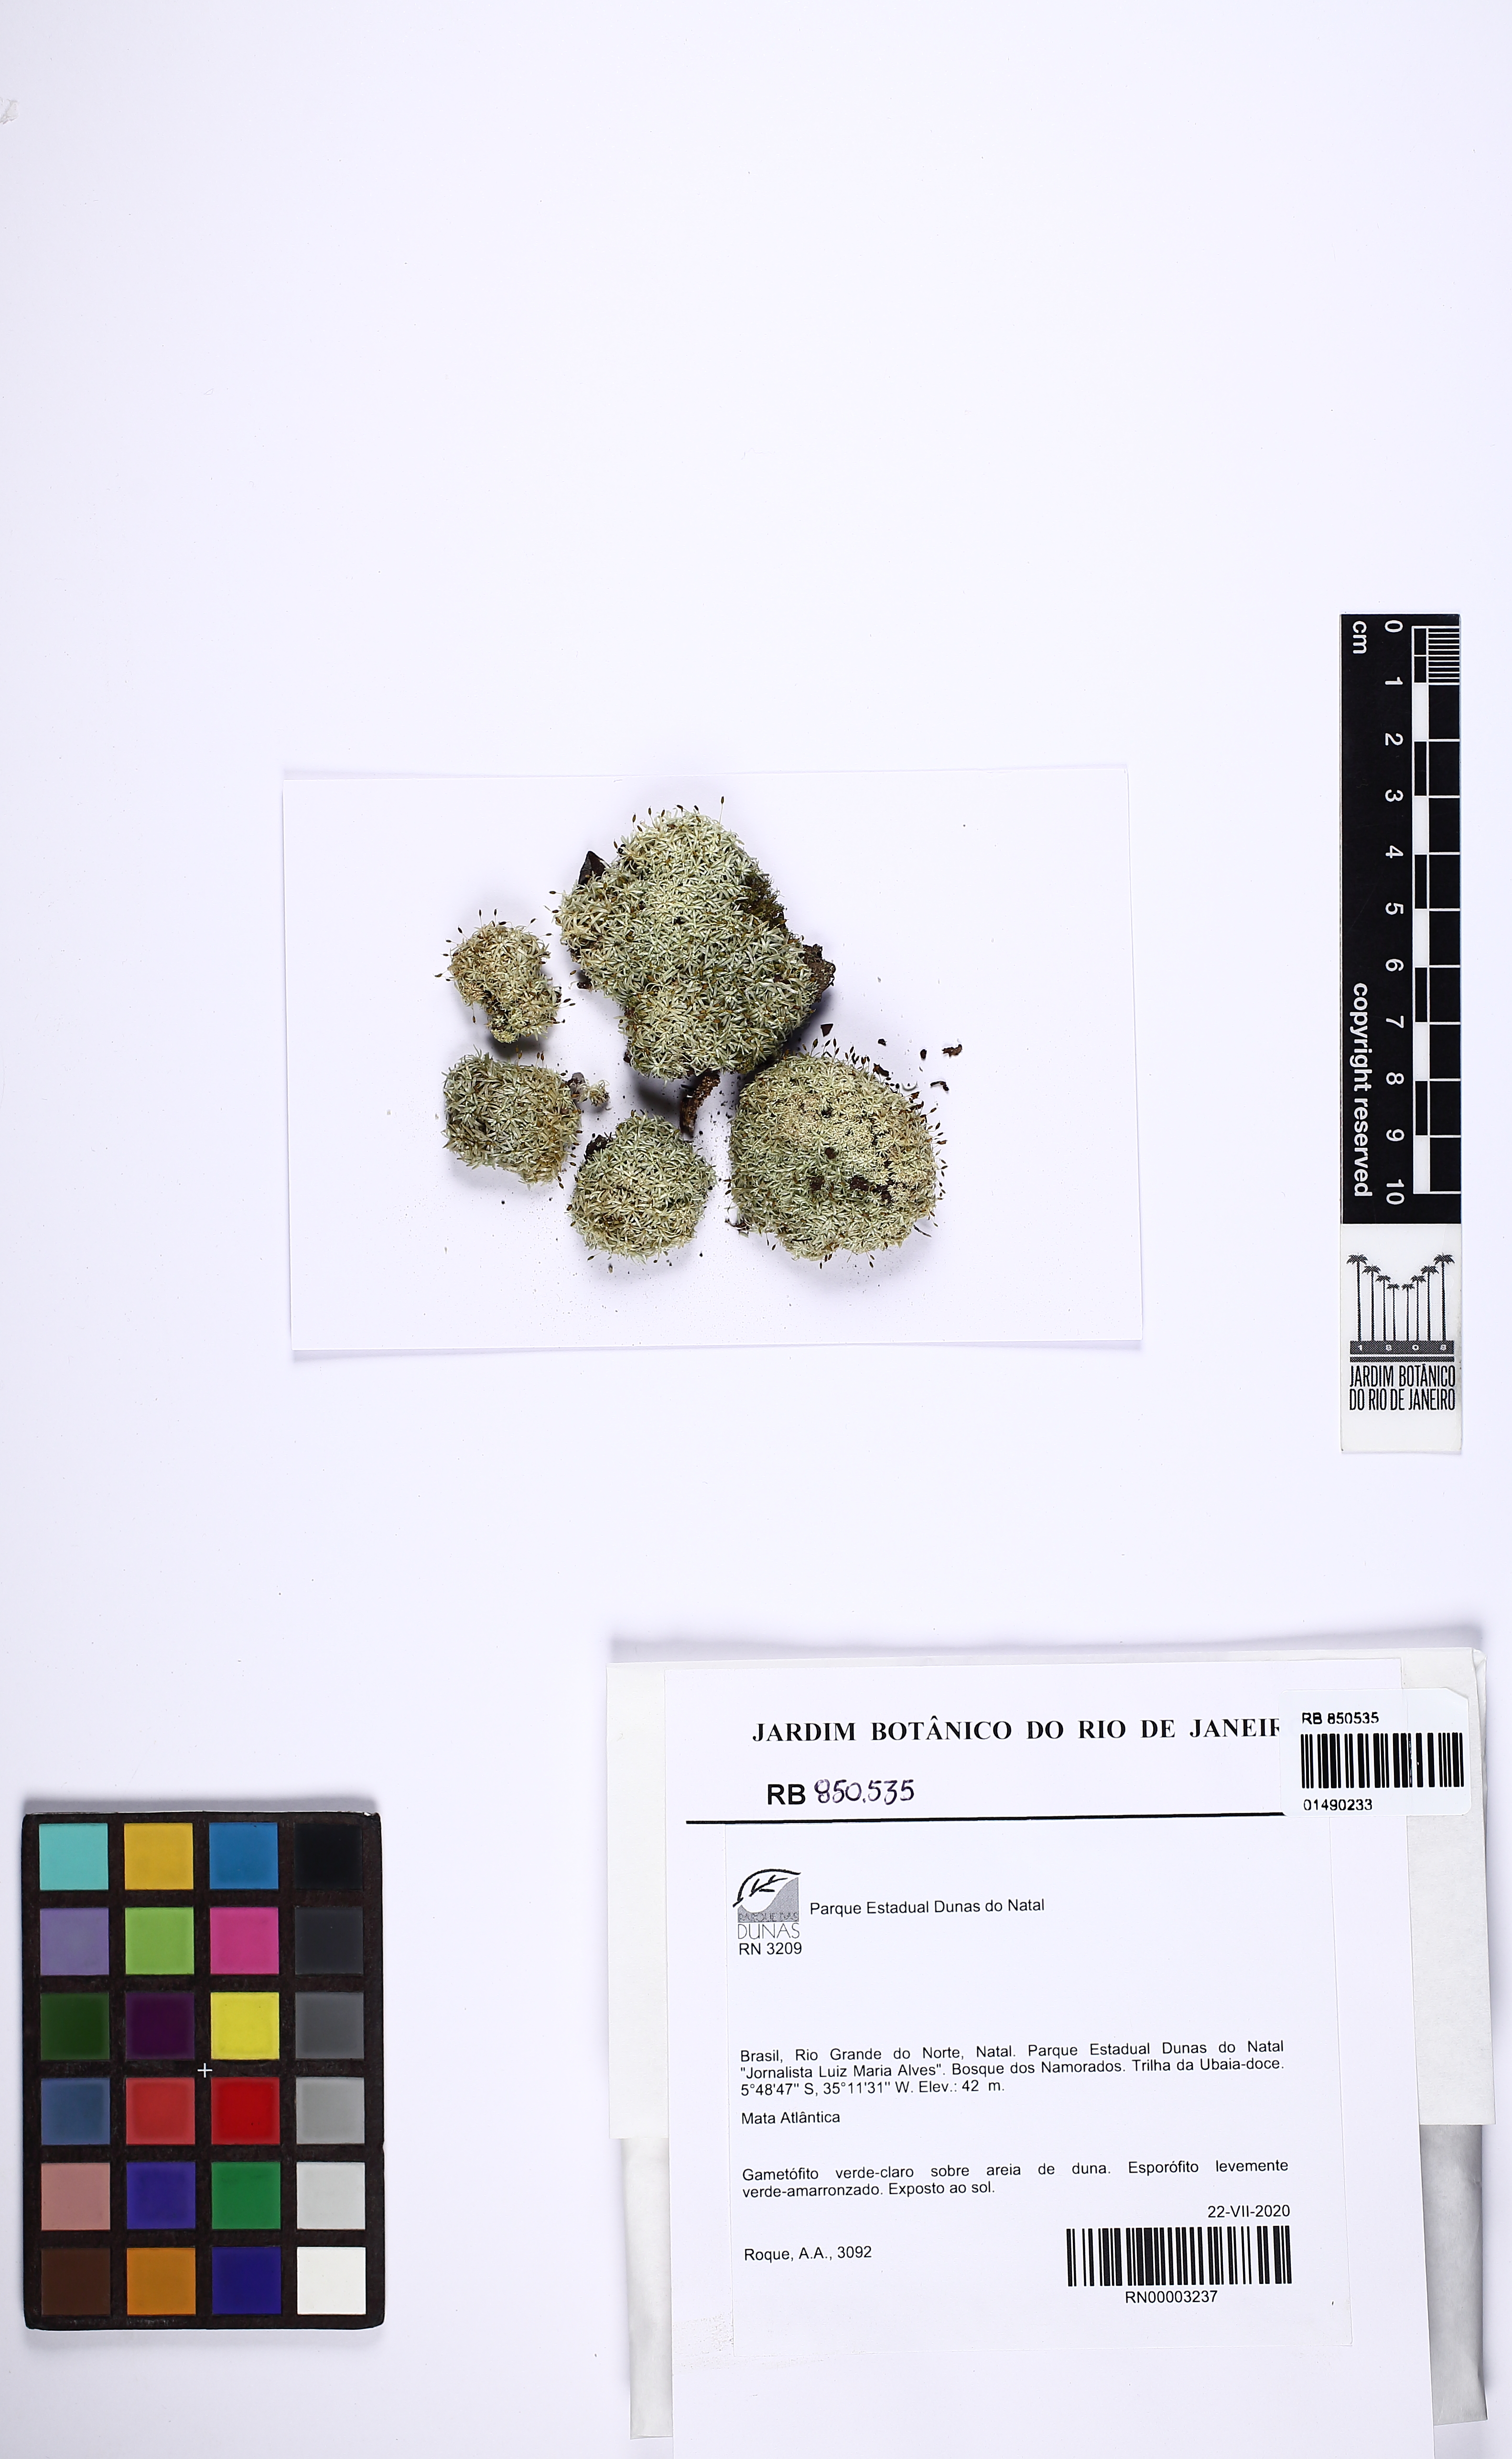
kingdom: Plantae
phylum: Bryophyta
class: Bryopsida
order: Dicranales
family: Octoblepharaceae
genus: Octoblepharum
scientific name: Octoblepharum albidum
